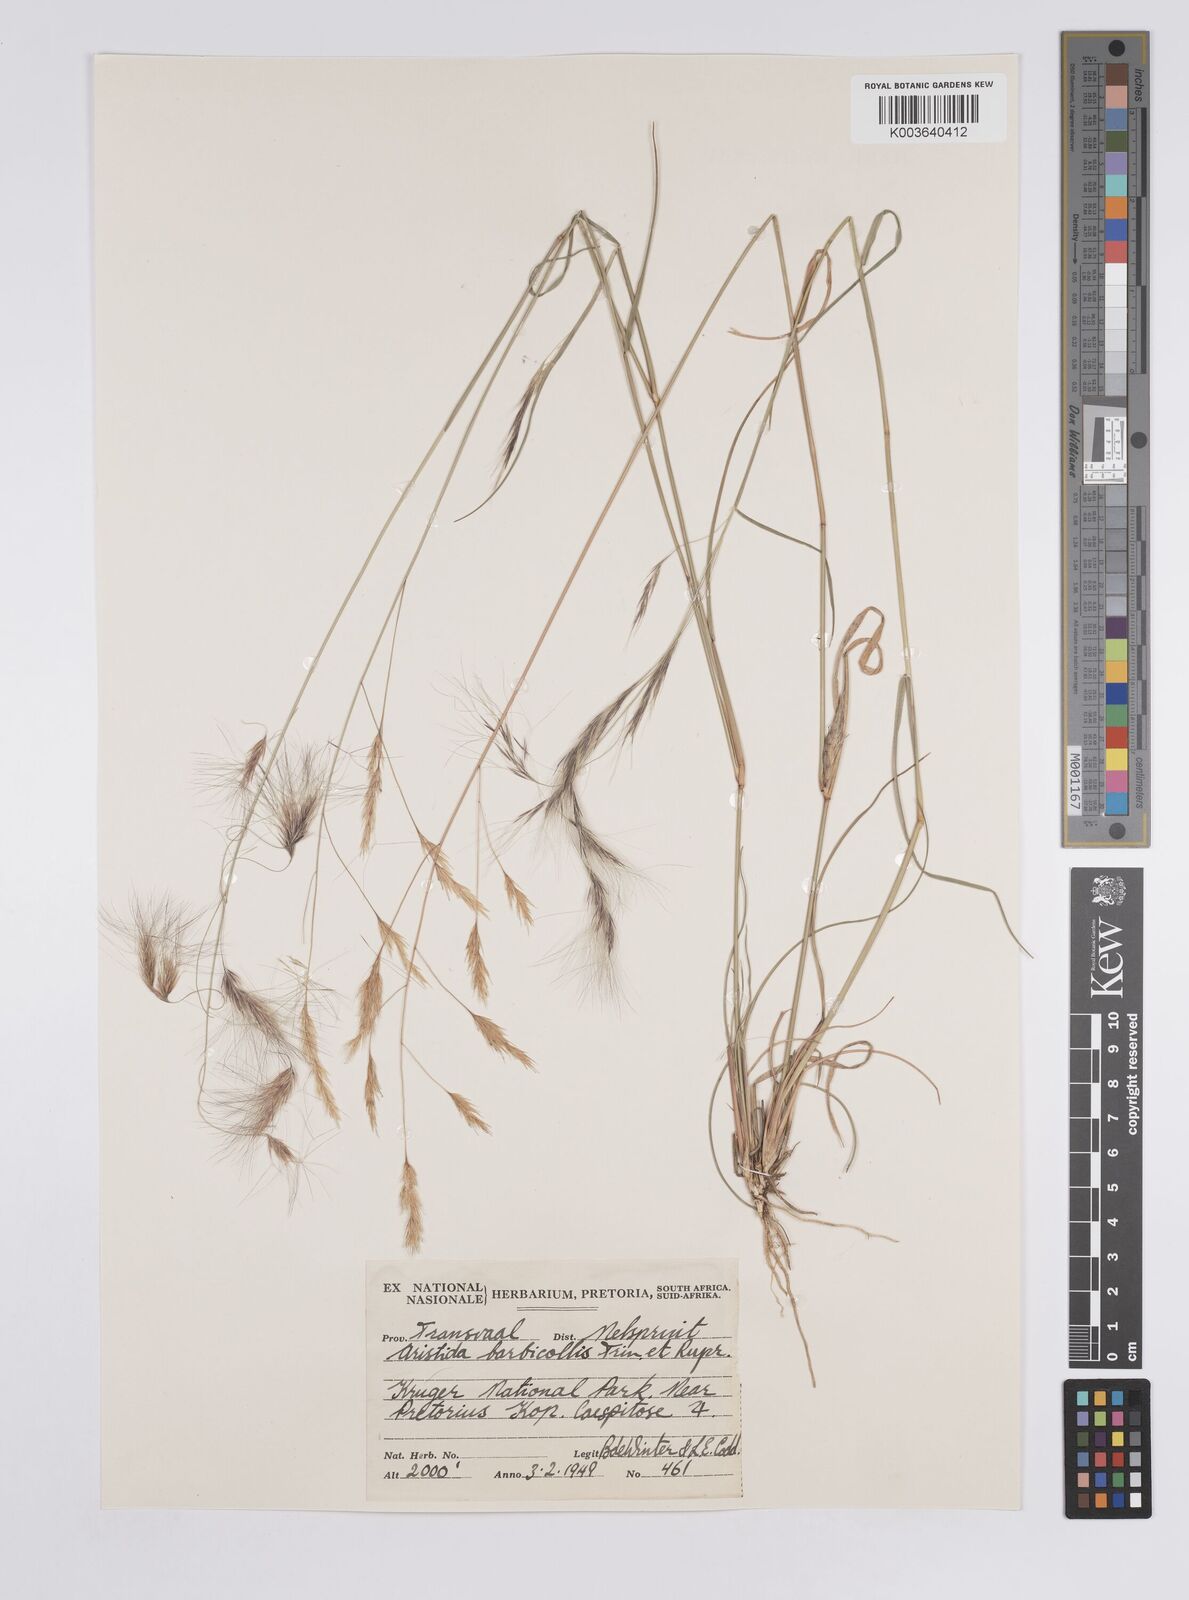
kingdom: Plantae
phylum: Tracheophyta
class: Liliopsida
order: Poales
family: Poaceae
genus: Aristida
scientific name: Aristida barbicollis
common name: Spreading prickle grass
